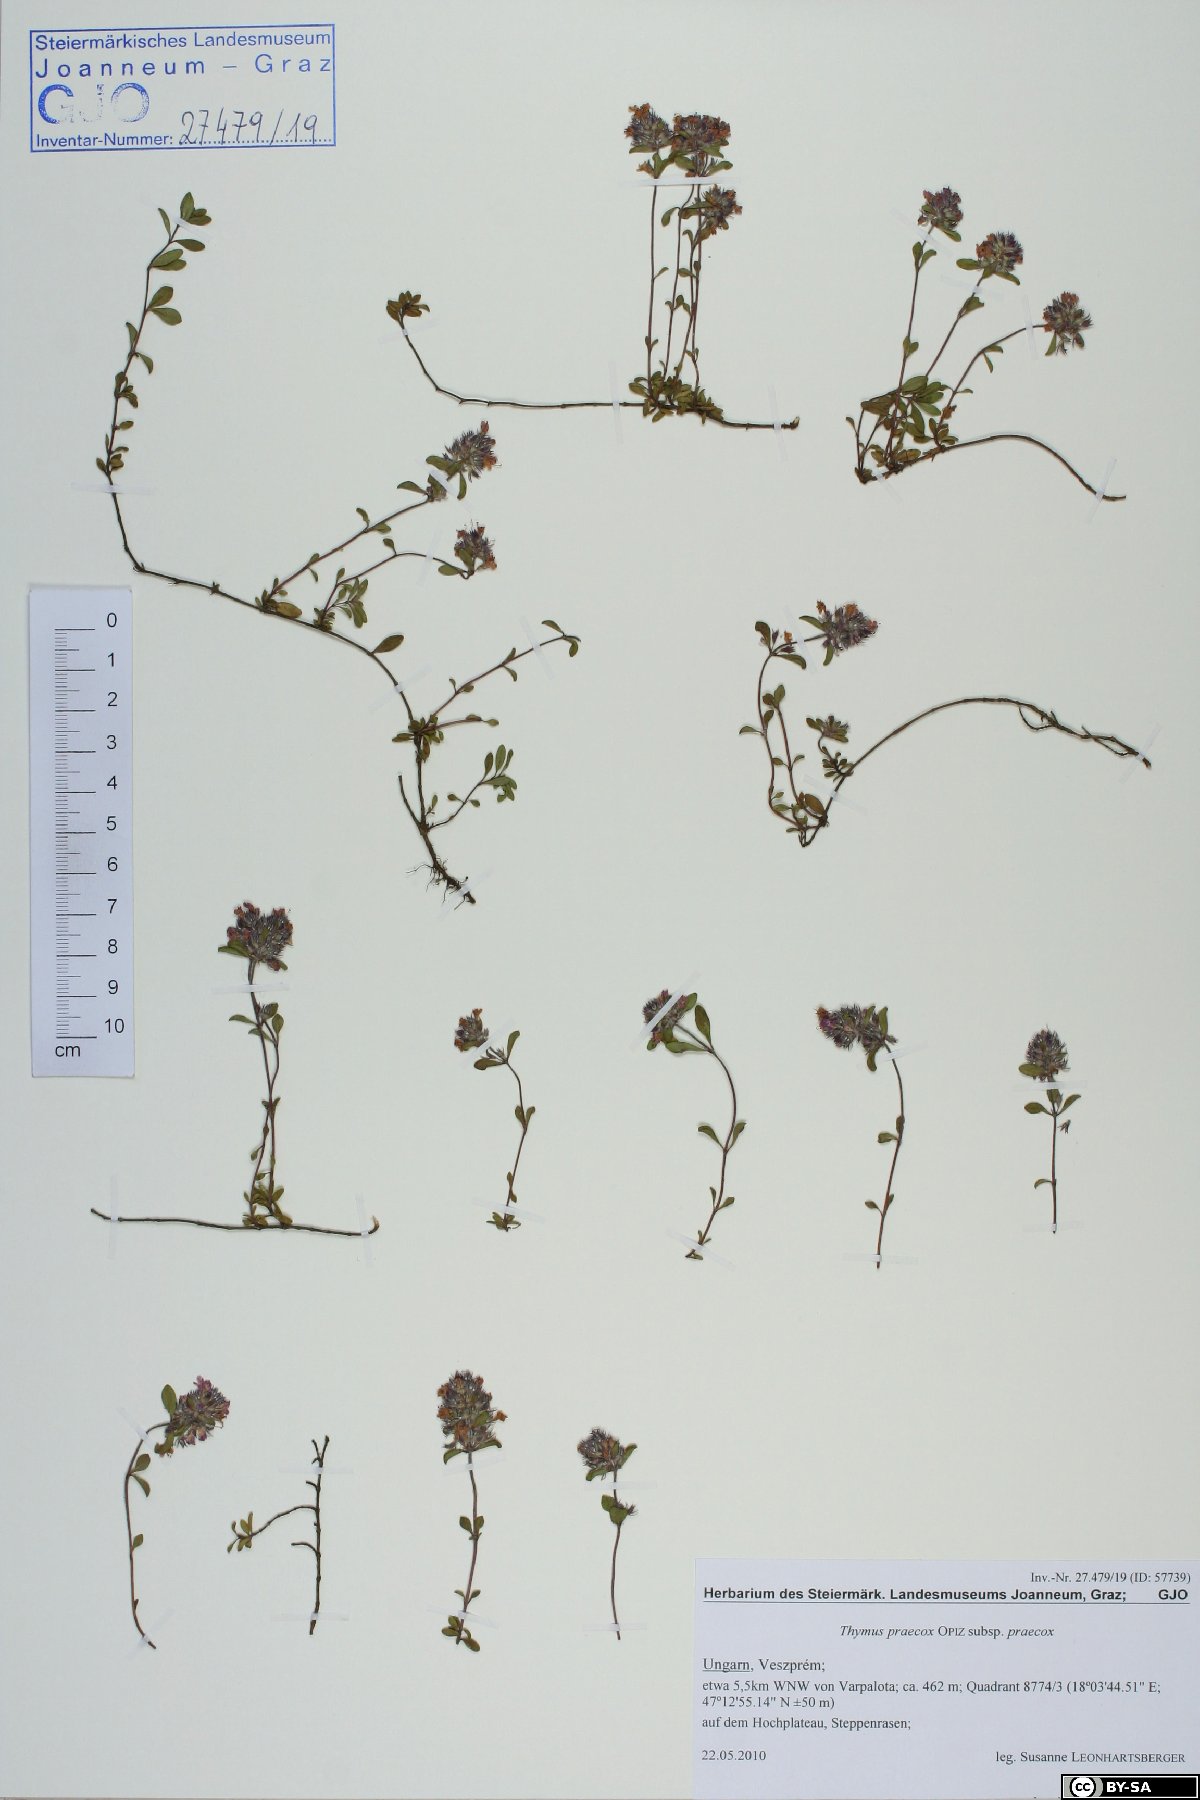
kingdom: Plantae
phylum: Tracheophyta
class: Magnoliopsida
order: Lamiales
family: Lamiaceae
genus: Thymus
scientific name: Thymus praecox
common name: Wild thyme
